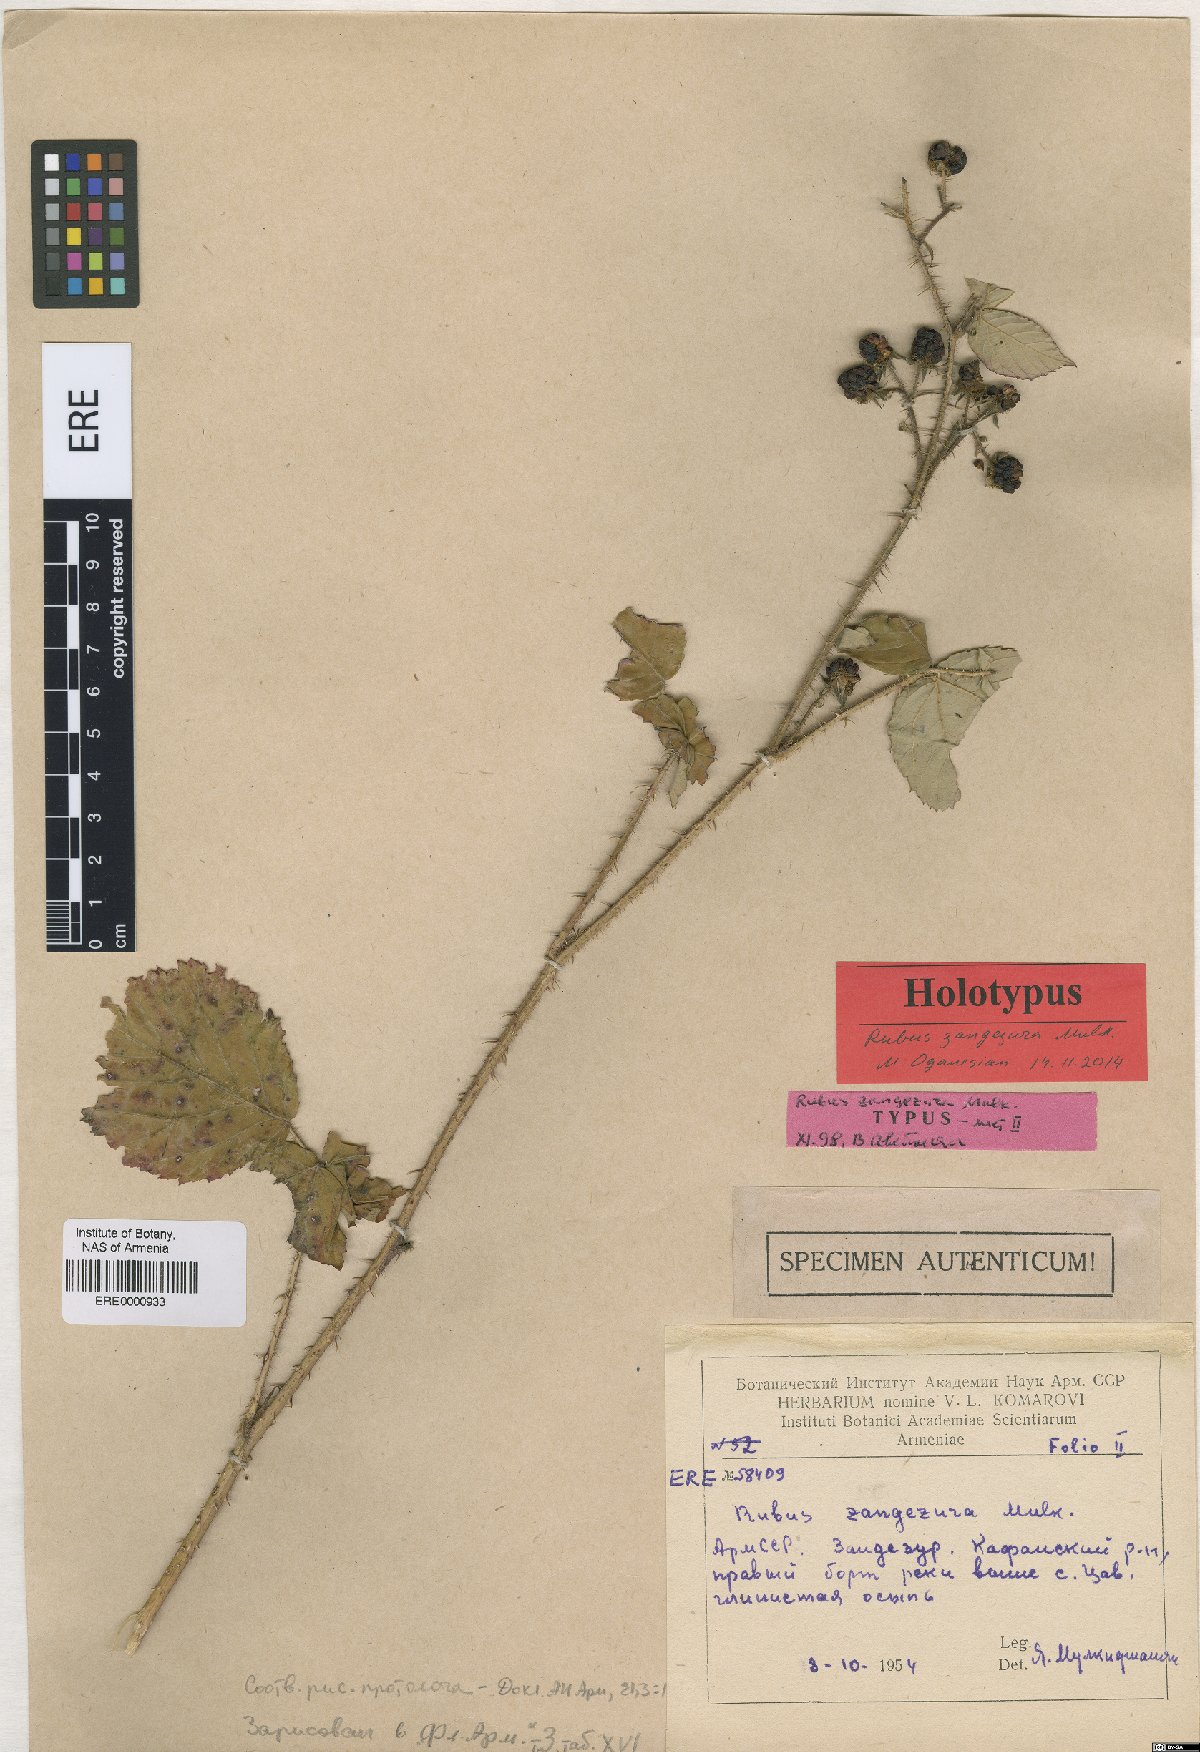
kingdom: Plantae
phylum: Tracheophyta
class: Magnoliopsida
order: Rosales
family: Rosaceae
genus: Rubus
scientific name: Rubus zangezurus
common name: Zangezurian blackberry
